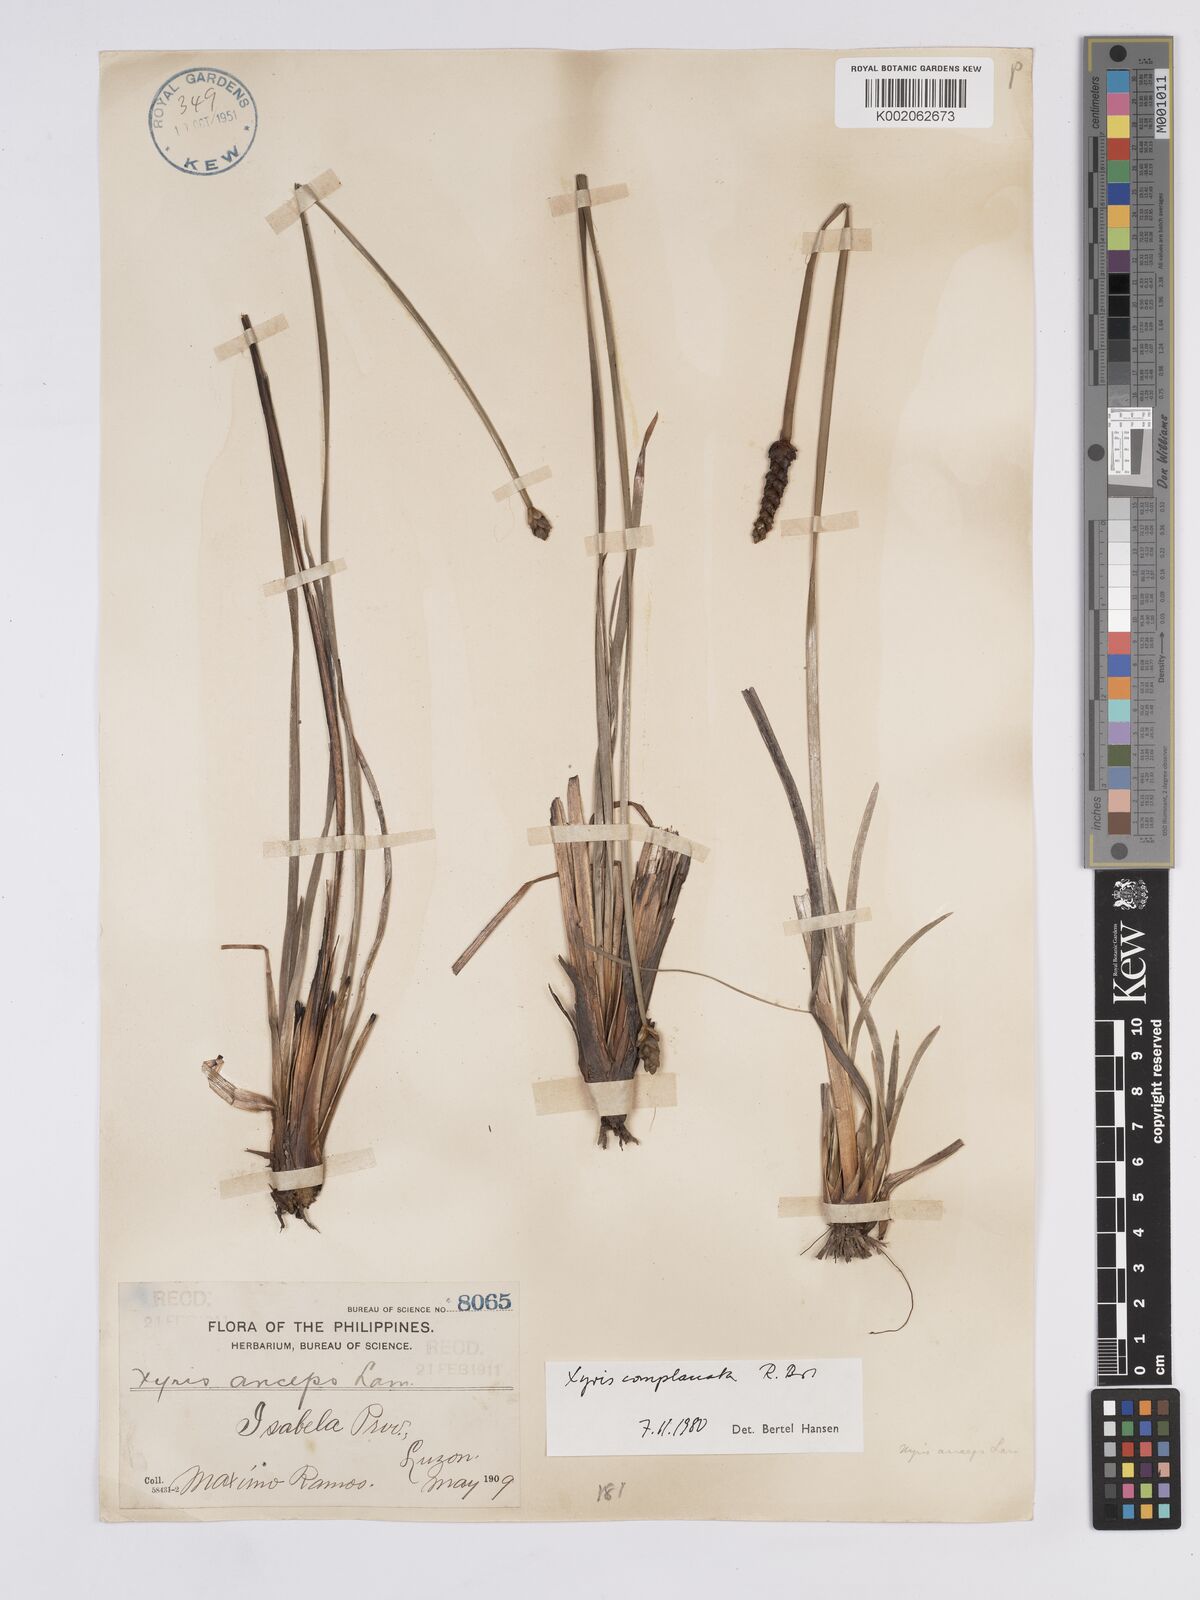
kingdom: Plantae
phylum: Tracheophyta
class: Liliopsida
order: Poales
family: Xyridaceae
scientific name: Xyridaceae
